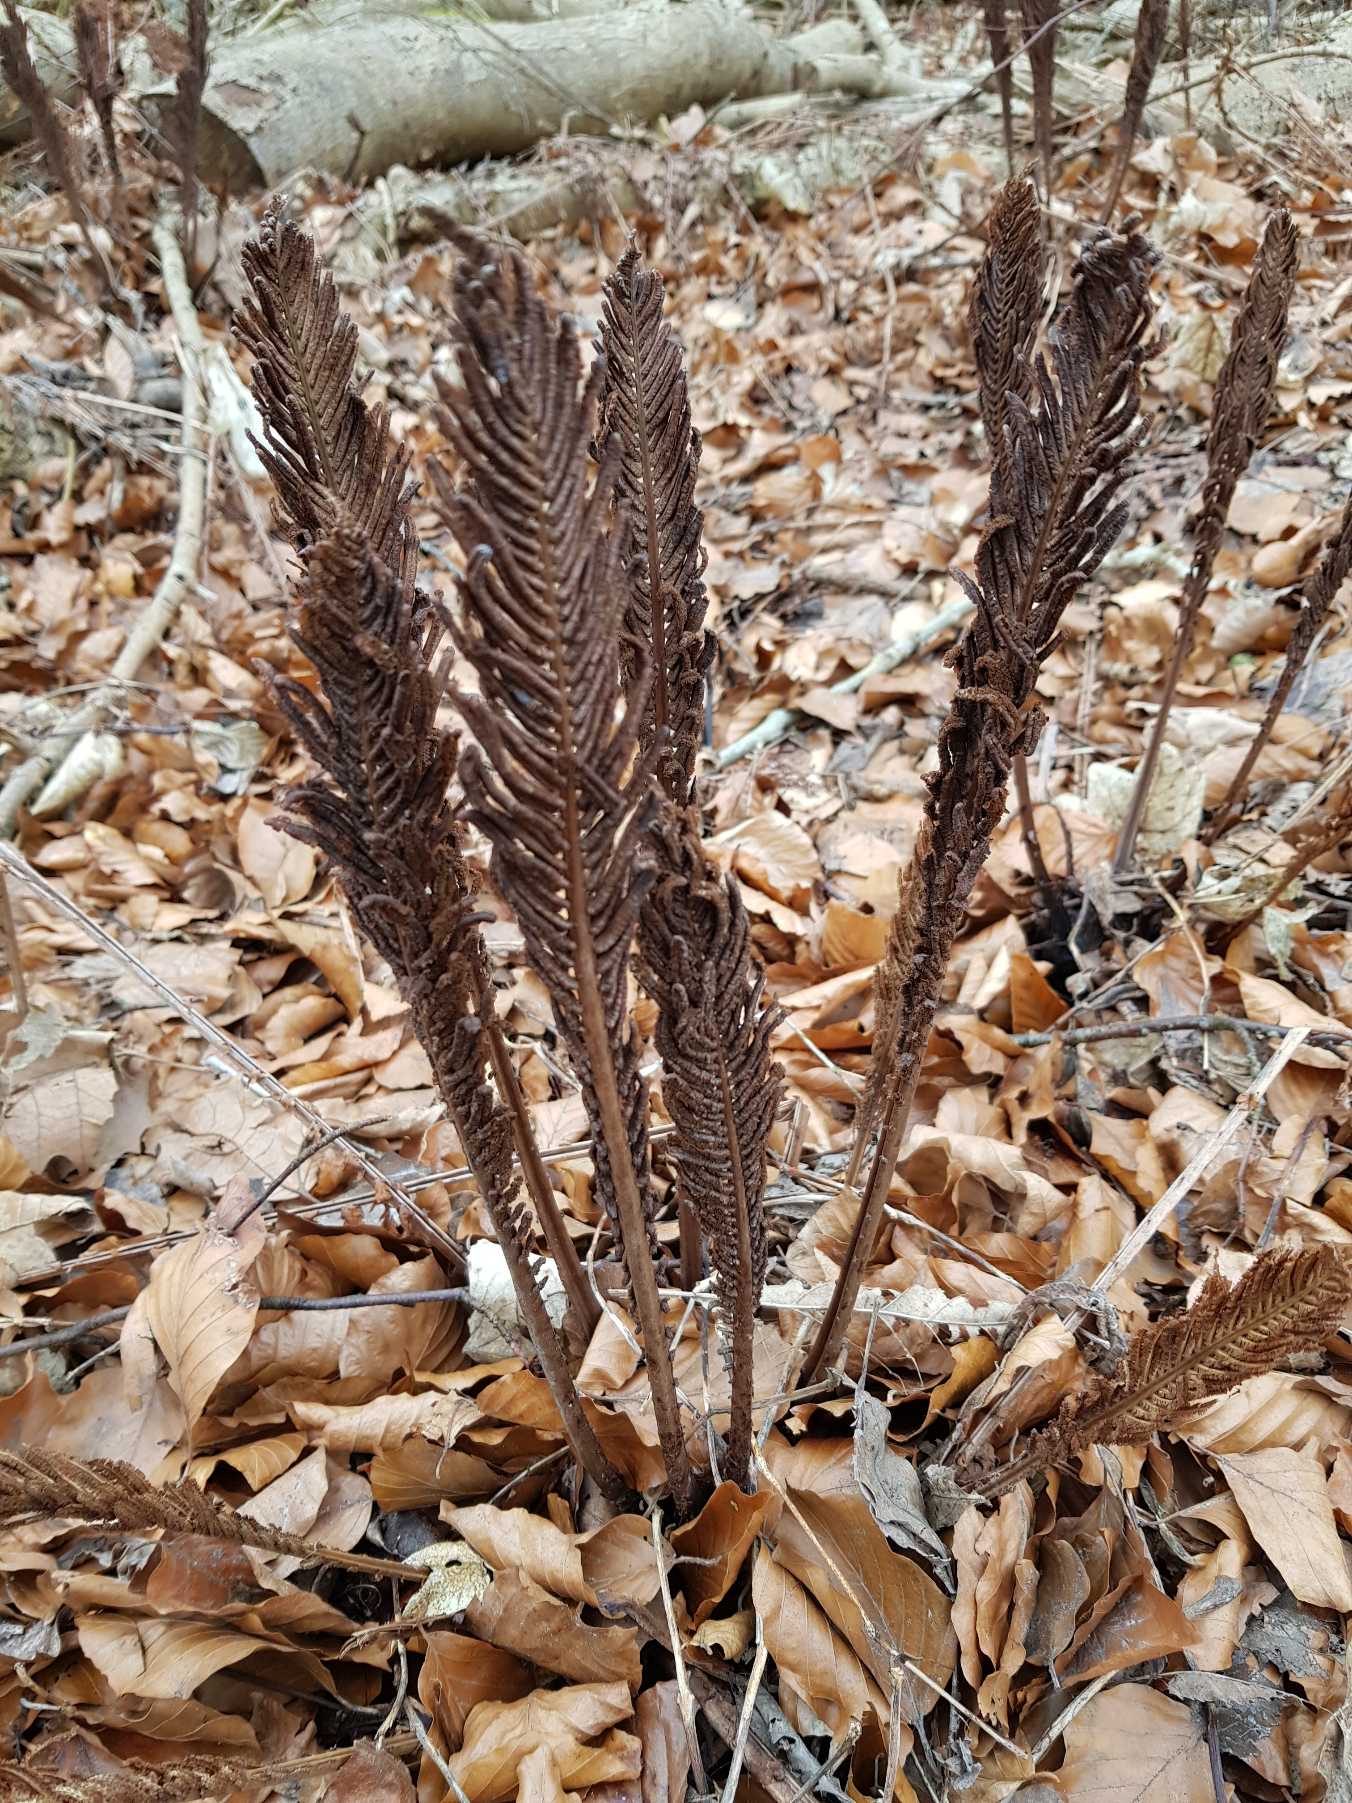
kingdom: Plantae
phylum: Tracheophyta
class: Polypodiopsida
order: Polypodiales
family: Onocleaceae
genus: Matteuccia
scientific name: Matteuccia struthiopteris
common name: Strudsvinge
